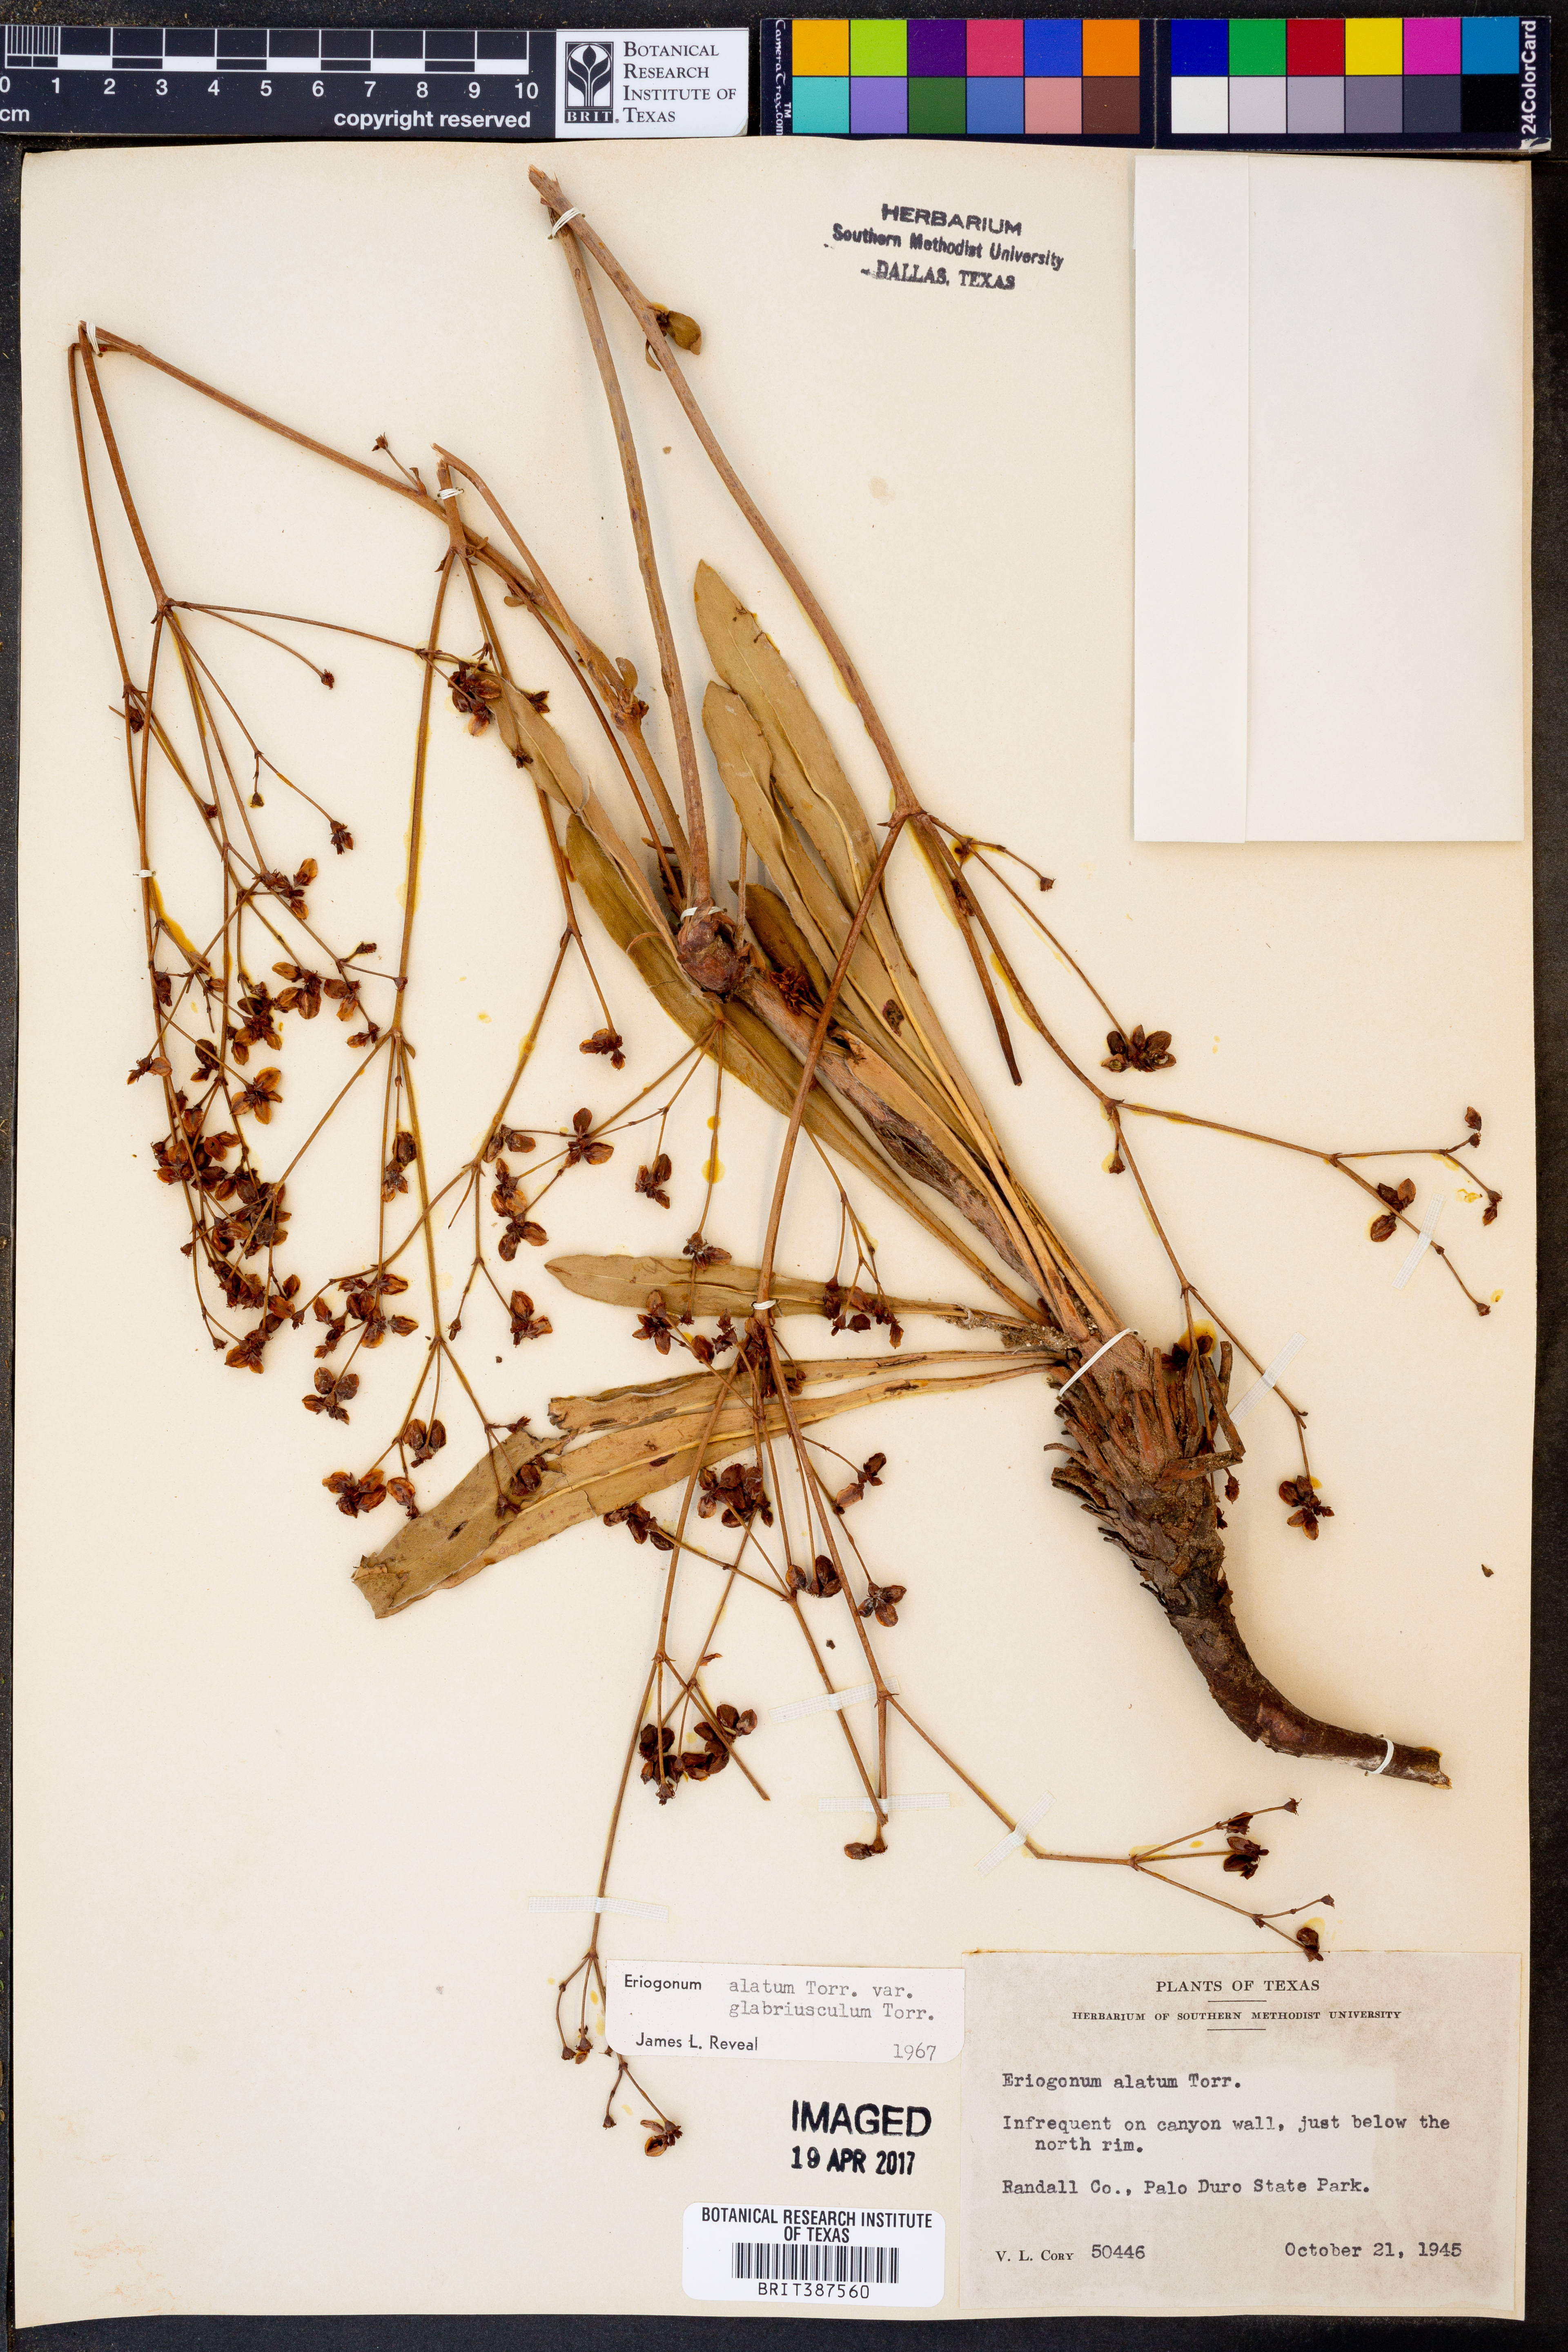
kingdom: Plantae
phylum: Tracheophyta
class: Magnoliopsida
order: Caryophyllales
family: Polygonaceae
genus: Eriogonum
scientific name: Eriogonum alatum
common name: Winged eriogonum
